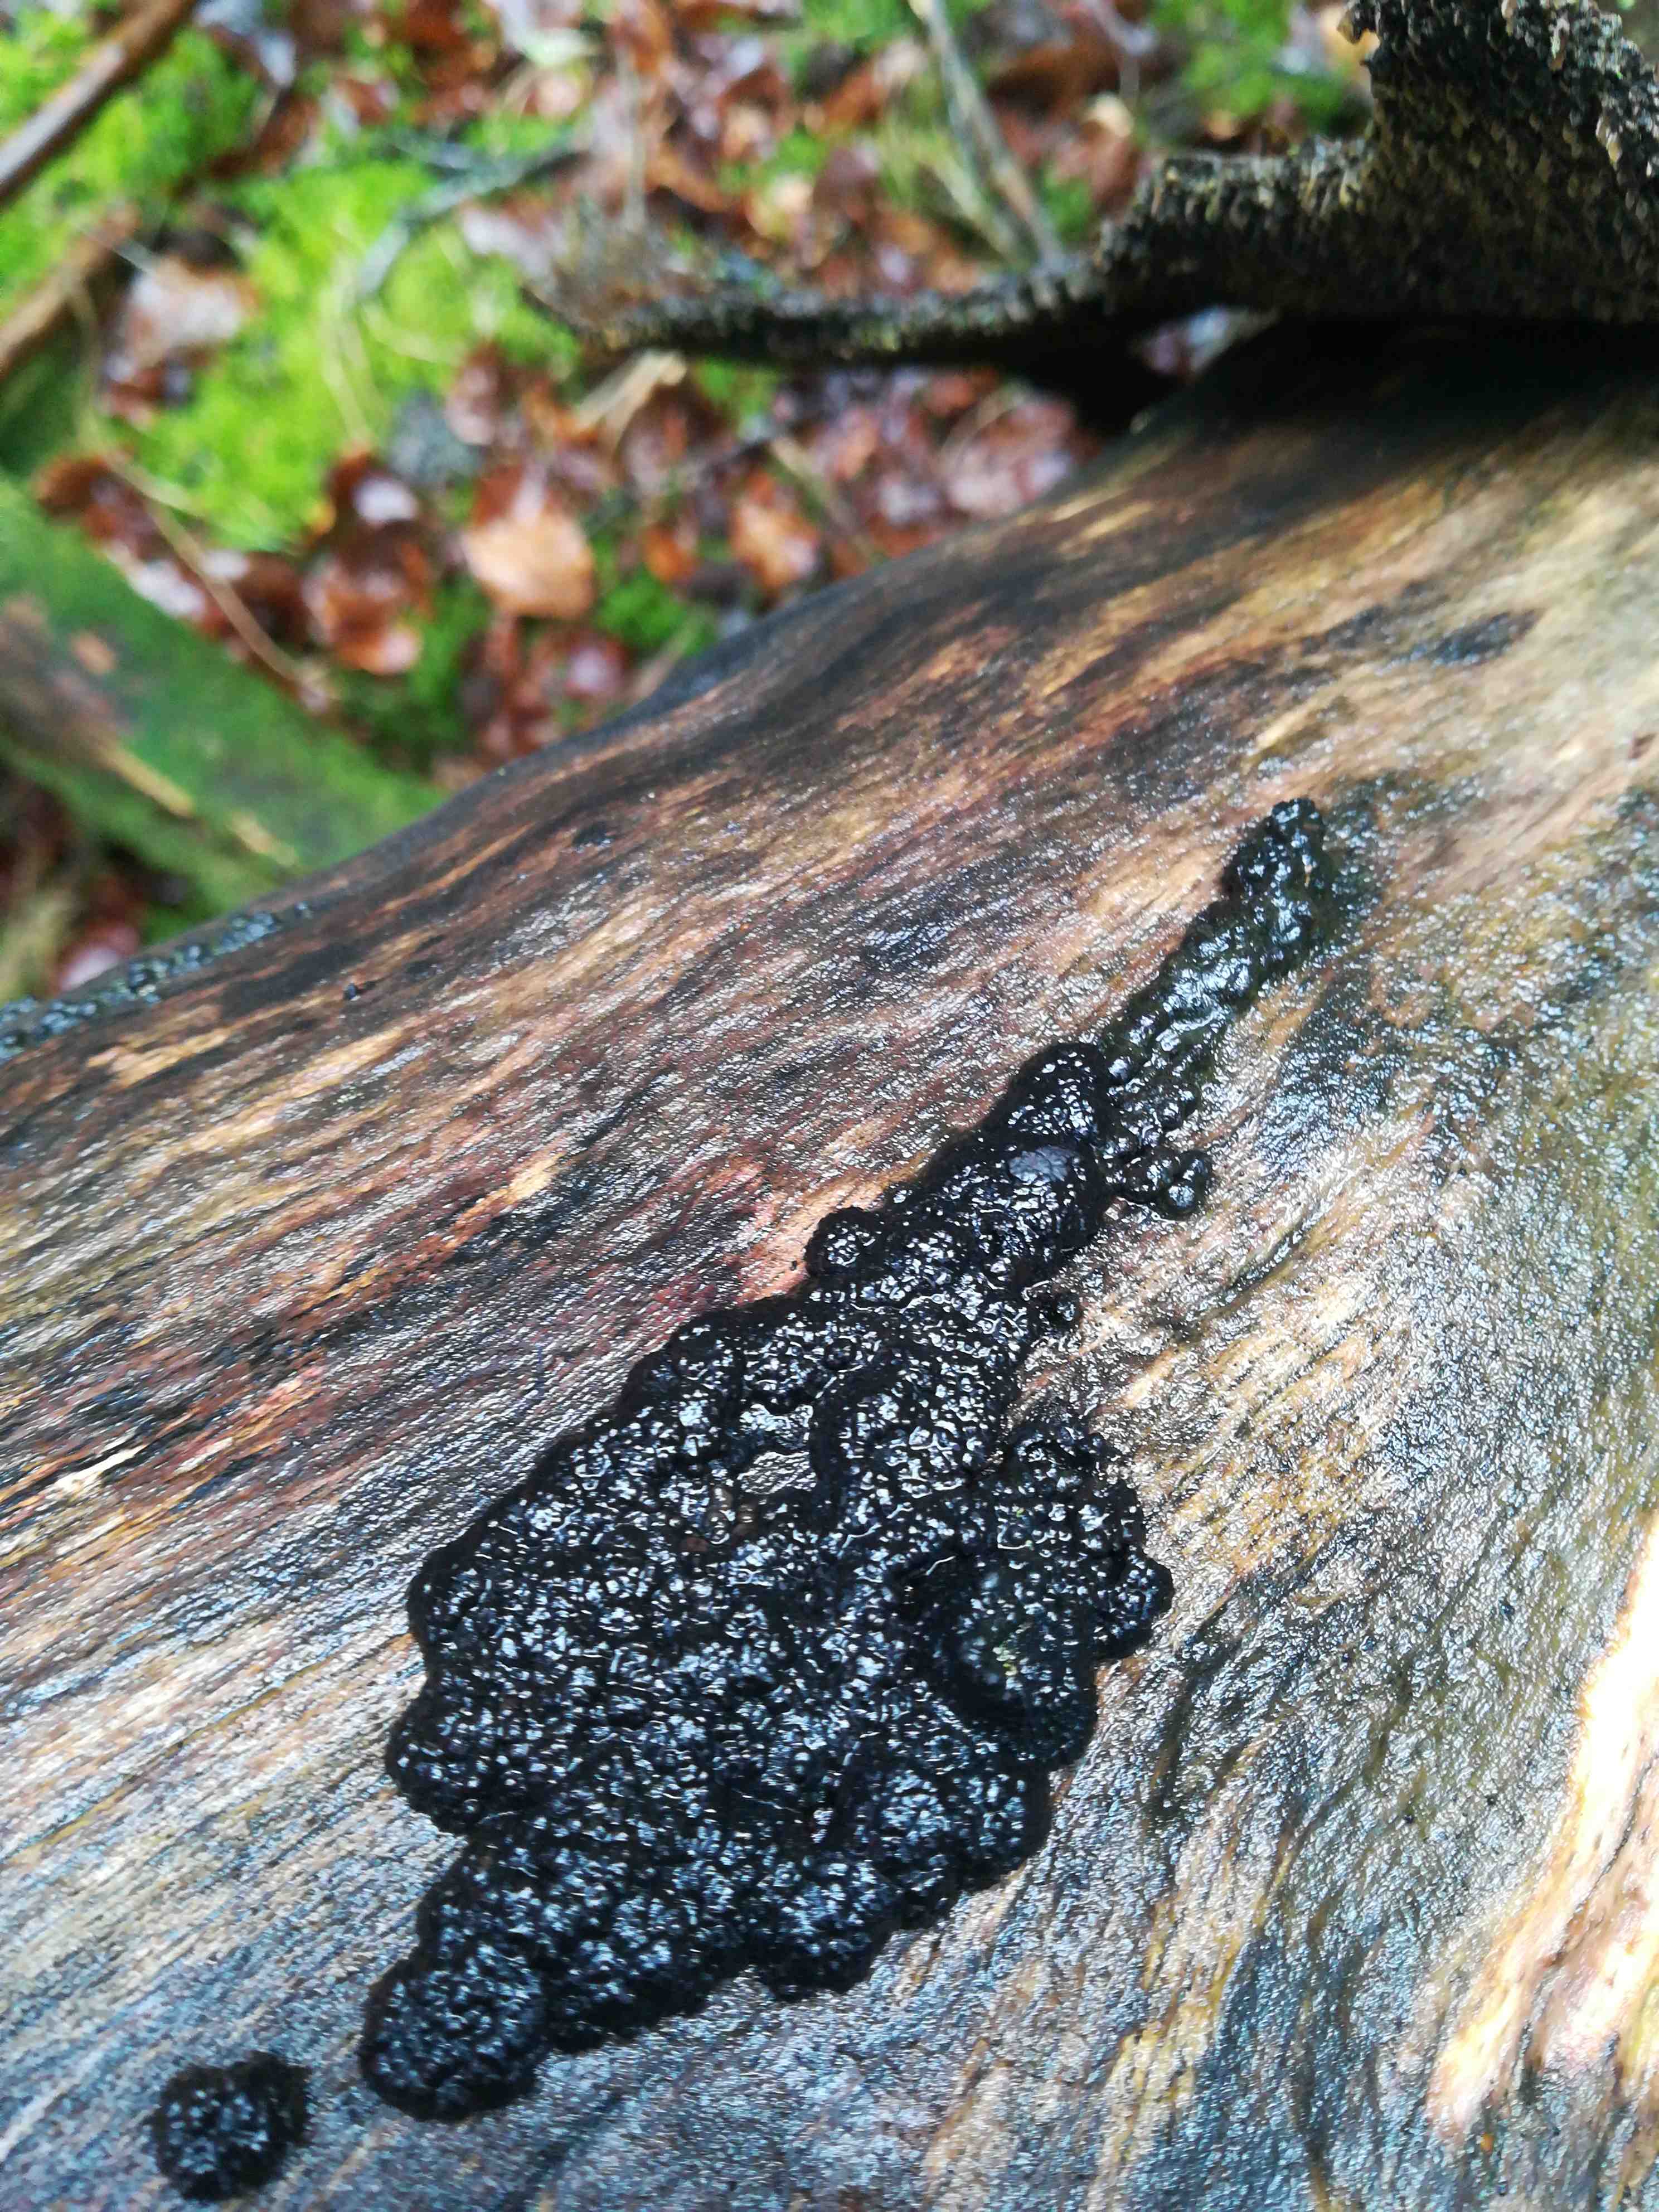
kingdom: Fungi
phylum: Ascomycota
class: Sordariomycetes
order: Xylariales
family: Hypoxylaceae
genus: Jackrogersella
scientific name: Jackrogersella cohaerens
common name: sammenflydende kulbær
